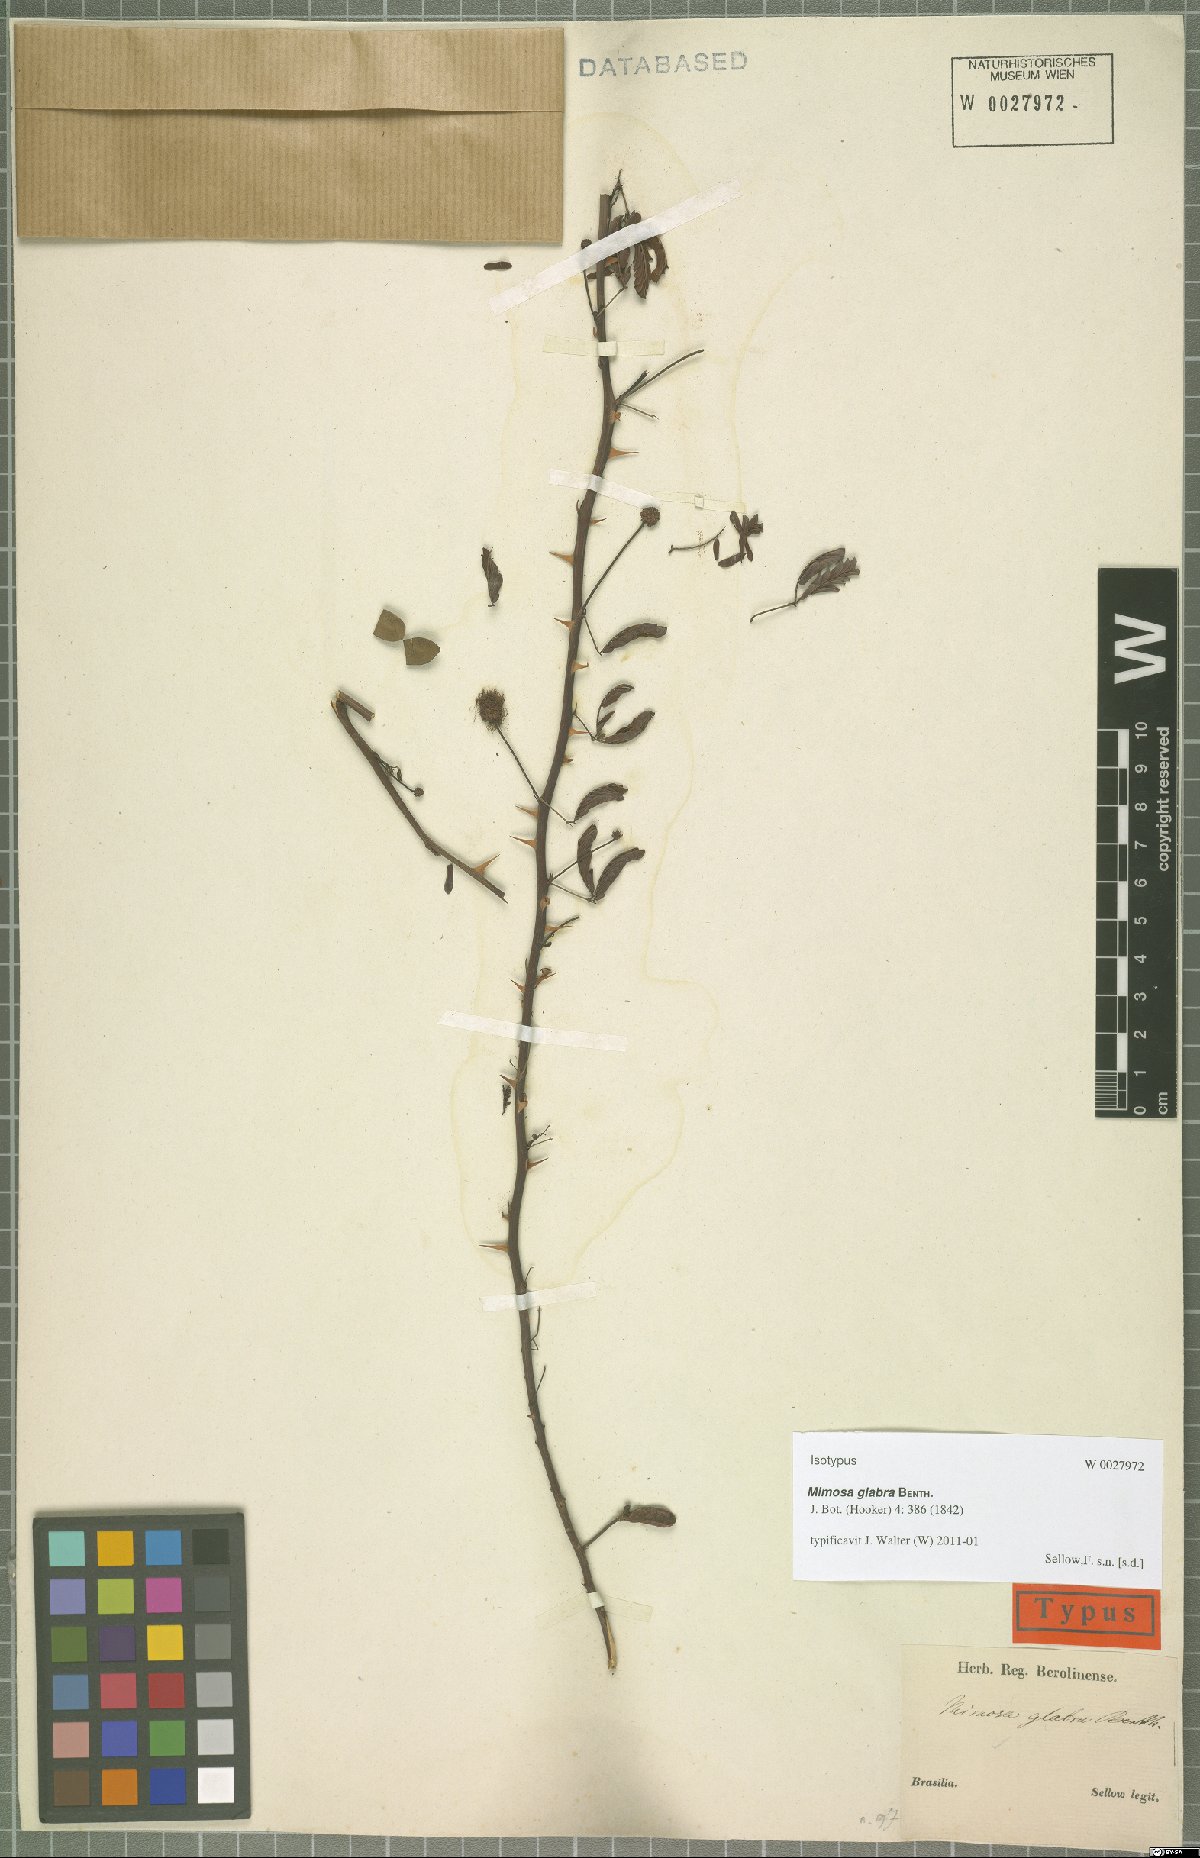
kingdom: Plantae
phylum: Tracheophyta
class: Magnoliopsida
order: Fabales
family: Fabaceae
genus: Mimosa
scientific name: Mimosa glabra
